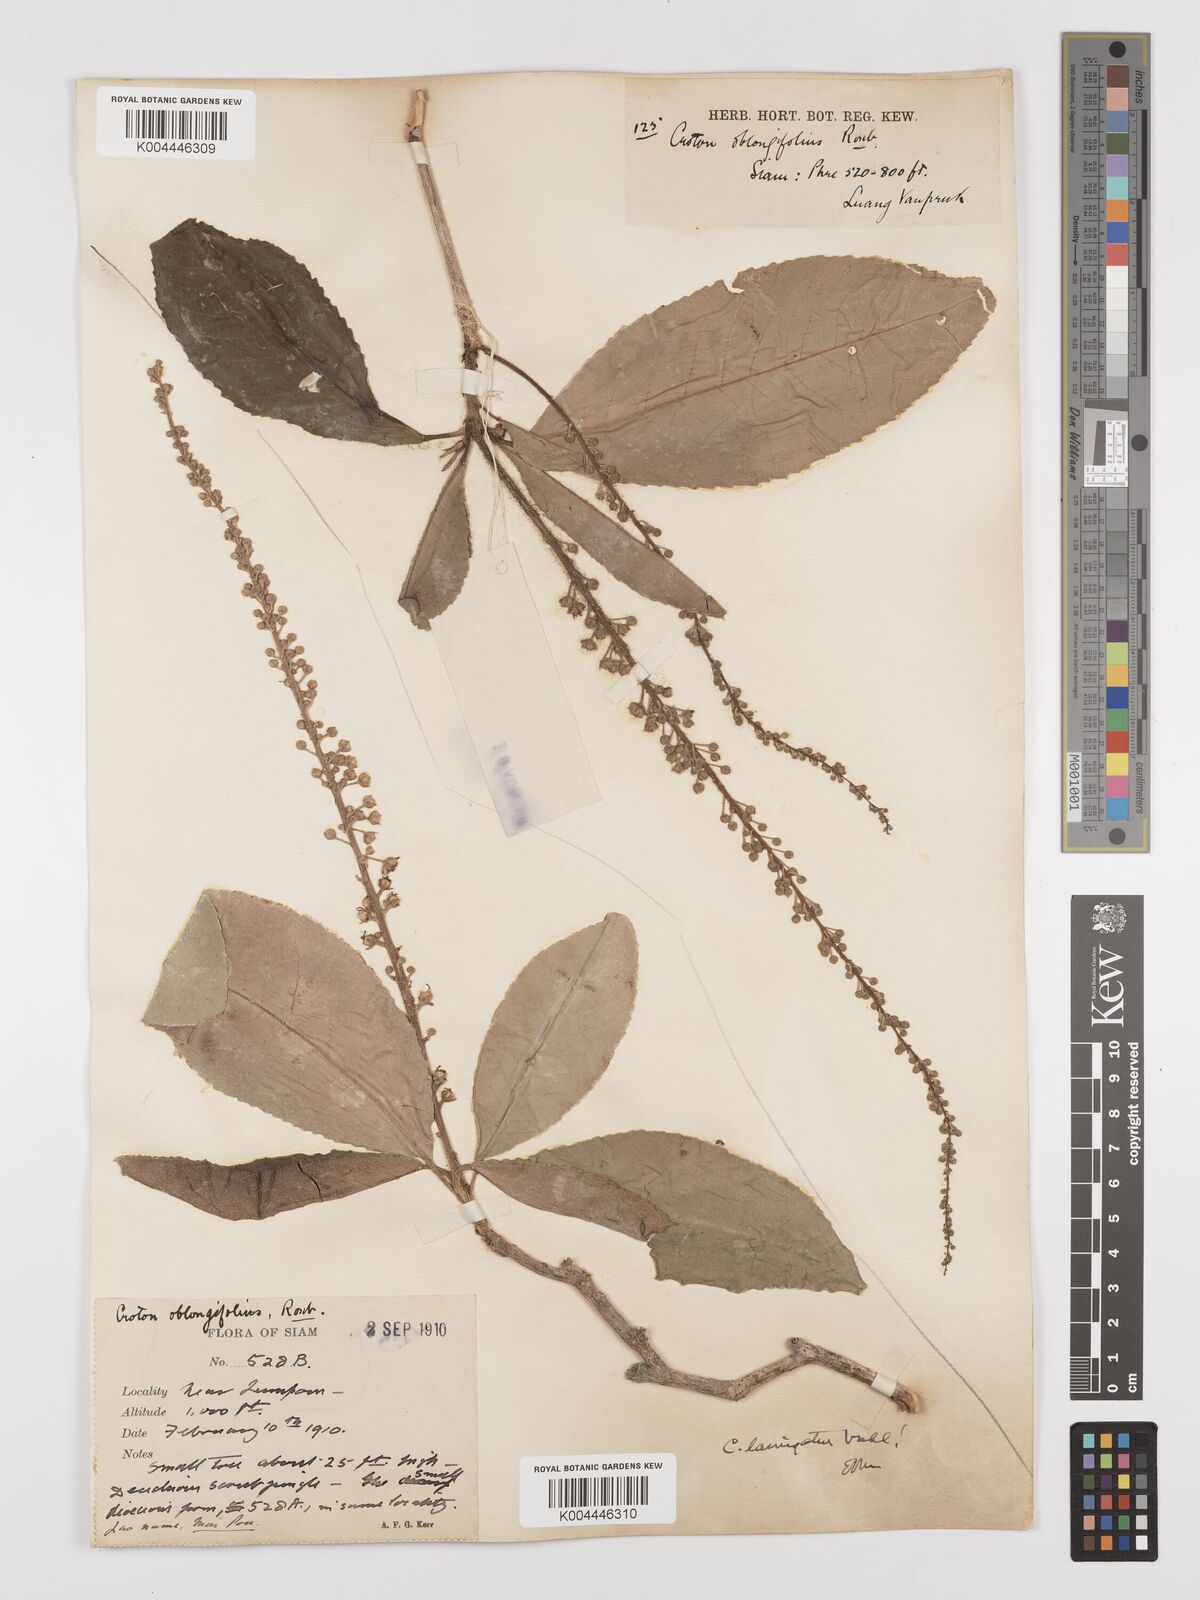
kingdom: Plantae
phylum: Tracheophyta
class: Magnoliopsida
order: Malpighiales
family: Euphorbiaceae
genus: Croton
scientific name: Croton
